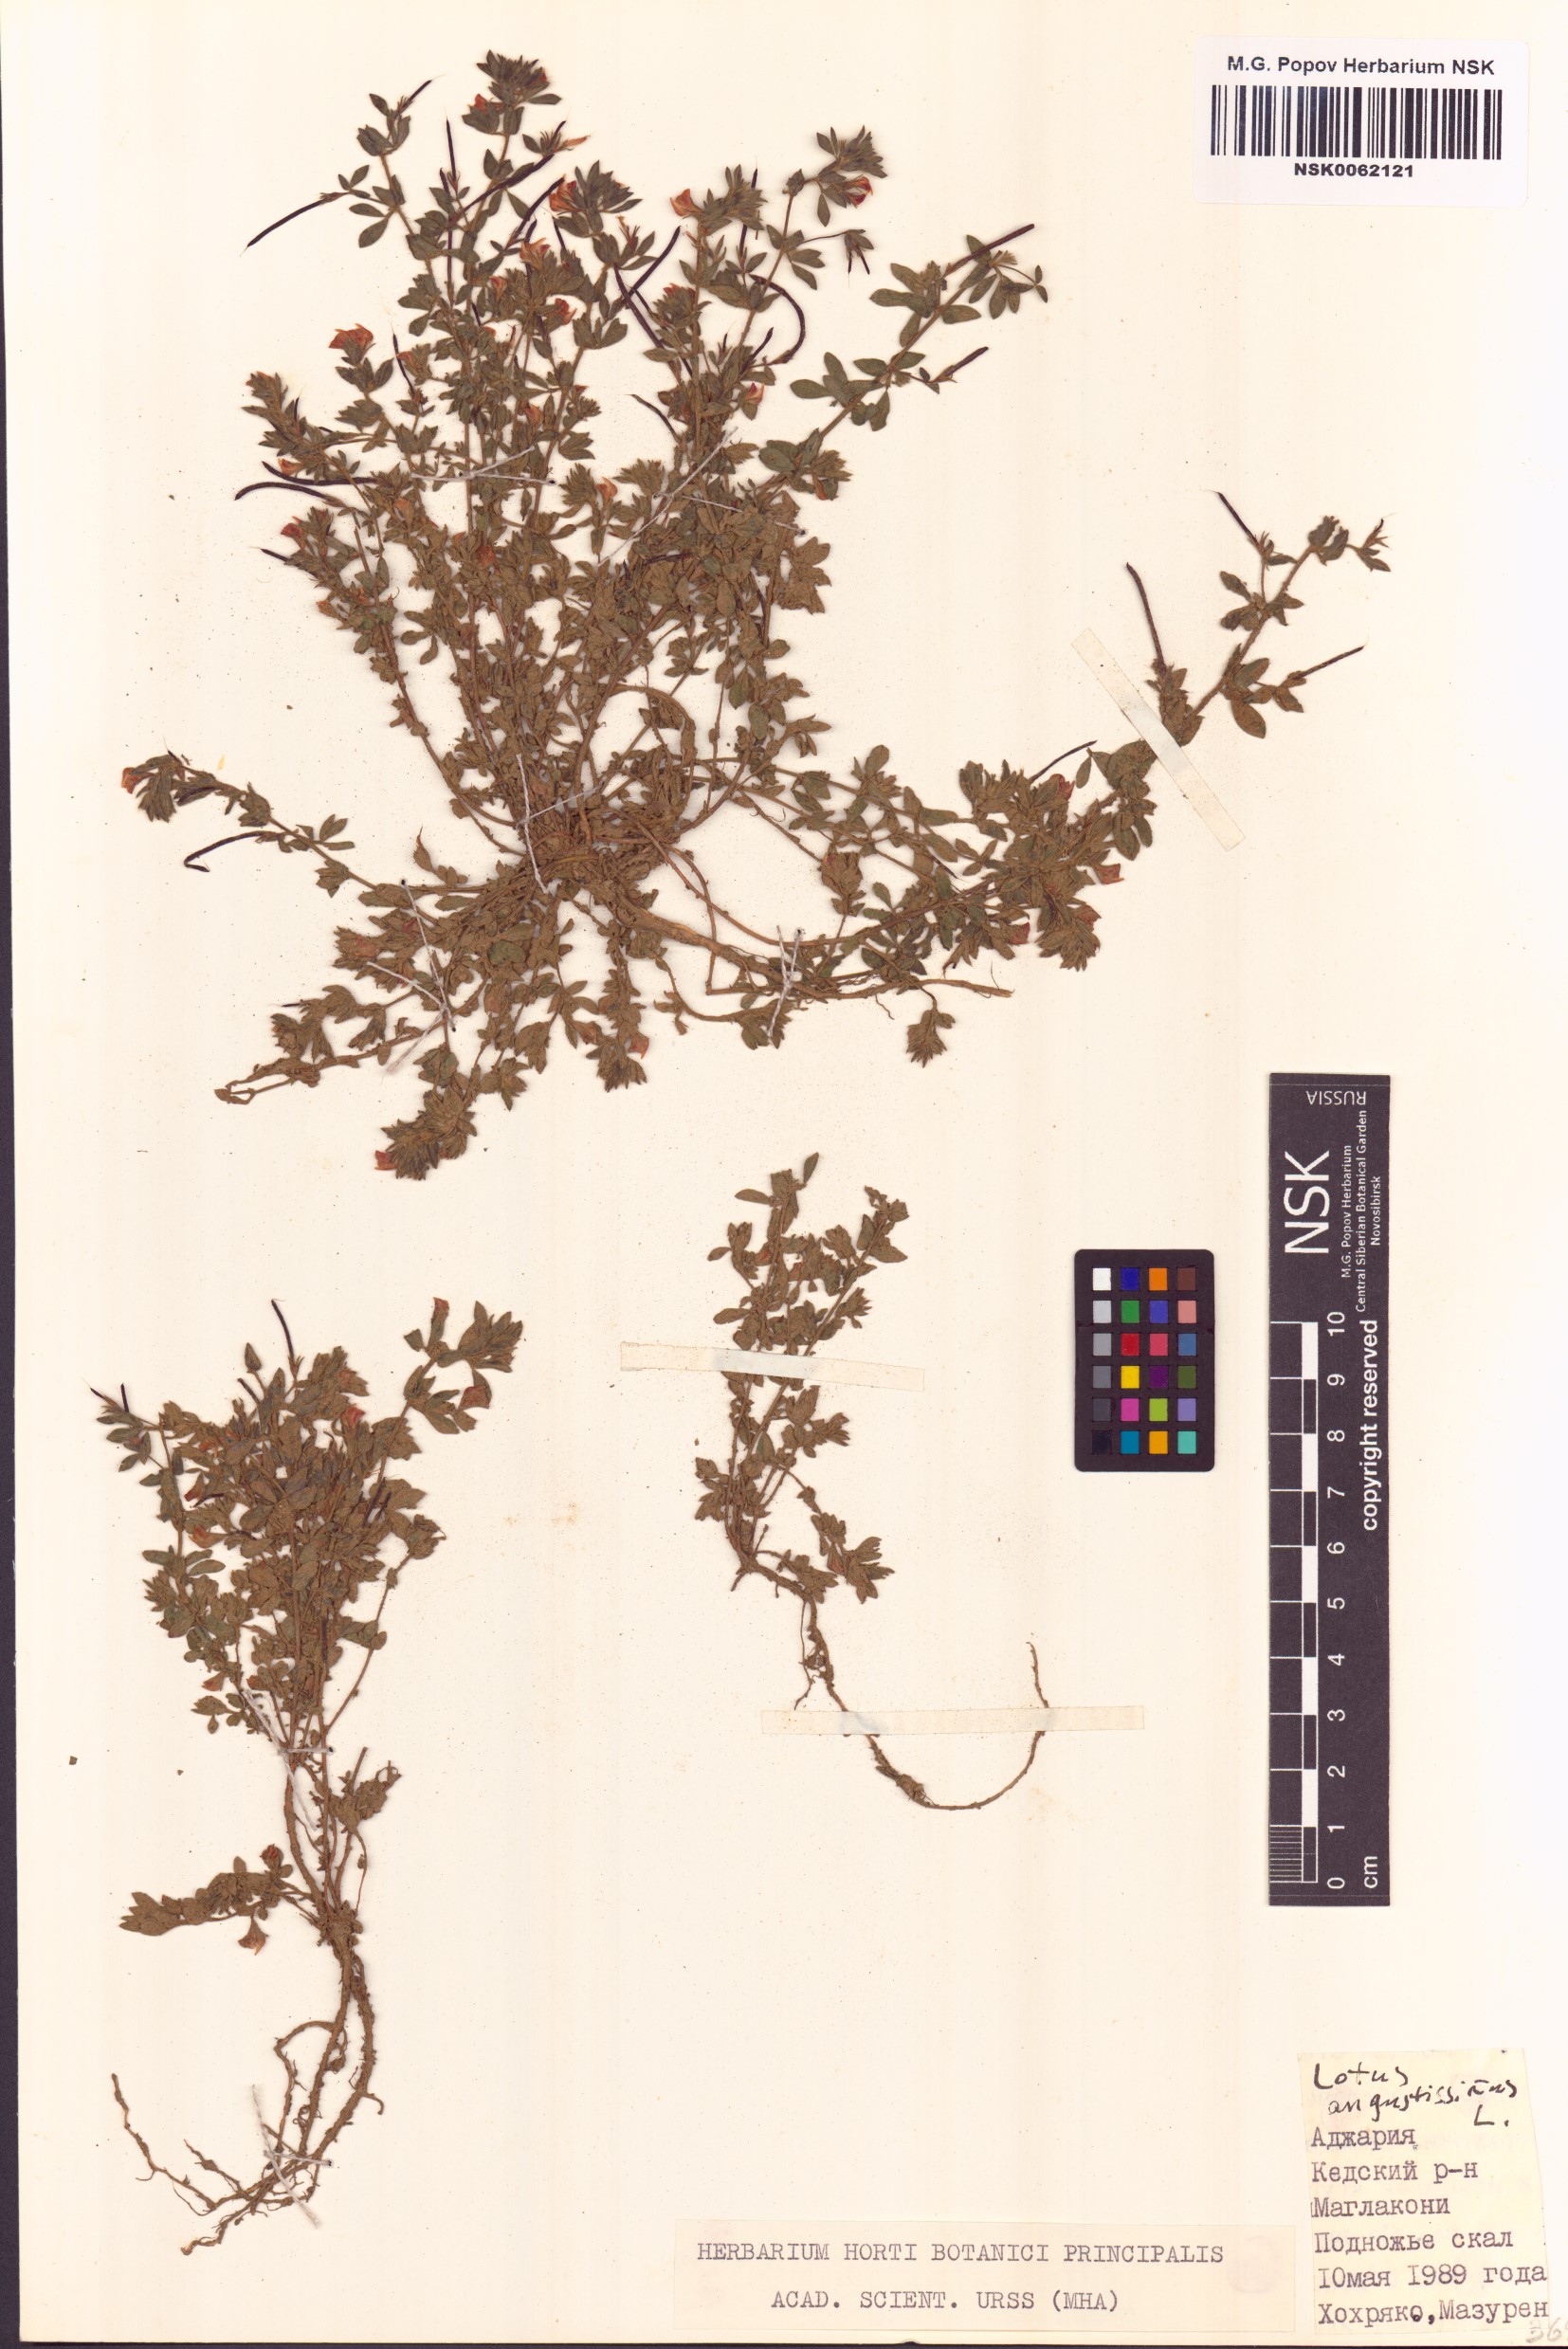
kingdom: Plantae
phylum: Tracheophyta
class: Magnoliopsida
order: Fabales
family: Fabaceae
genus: Lotus
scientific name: Lotus angustissimus
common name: Slender bird's-foot trefoil
